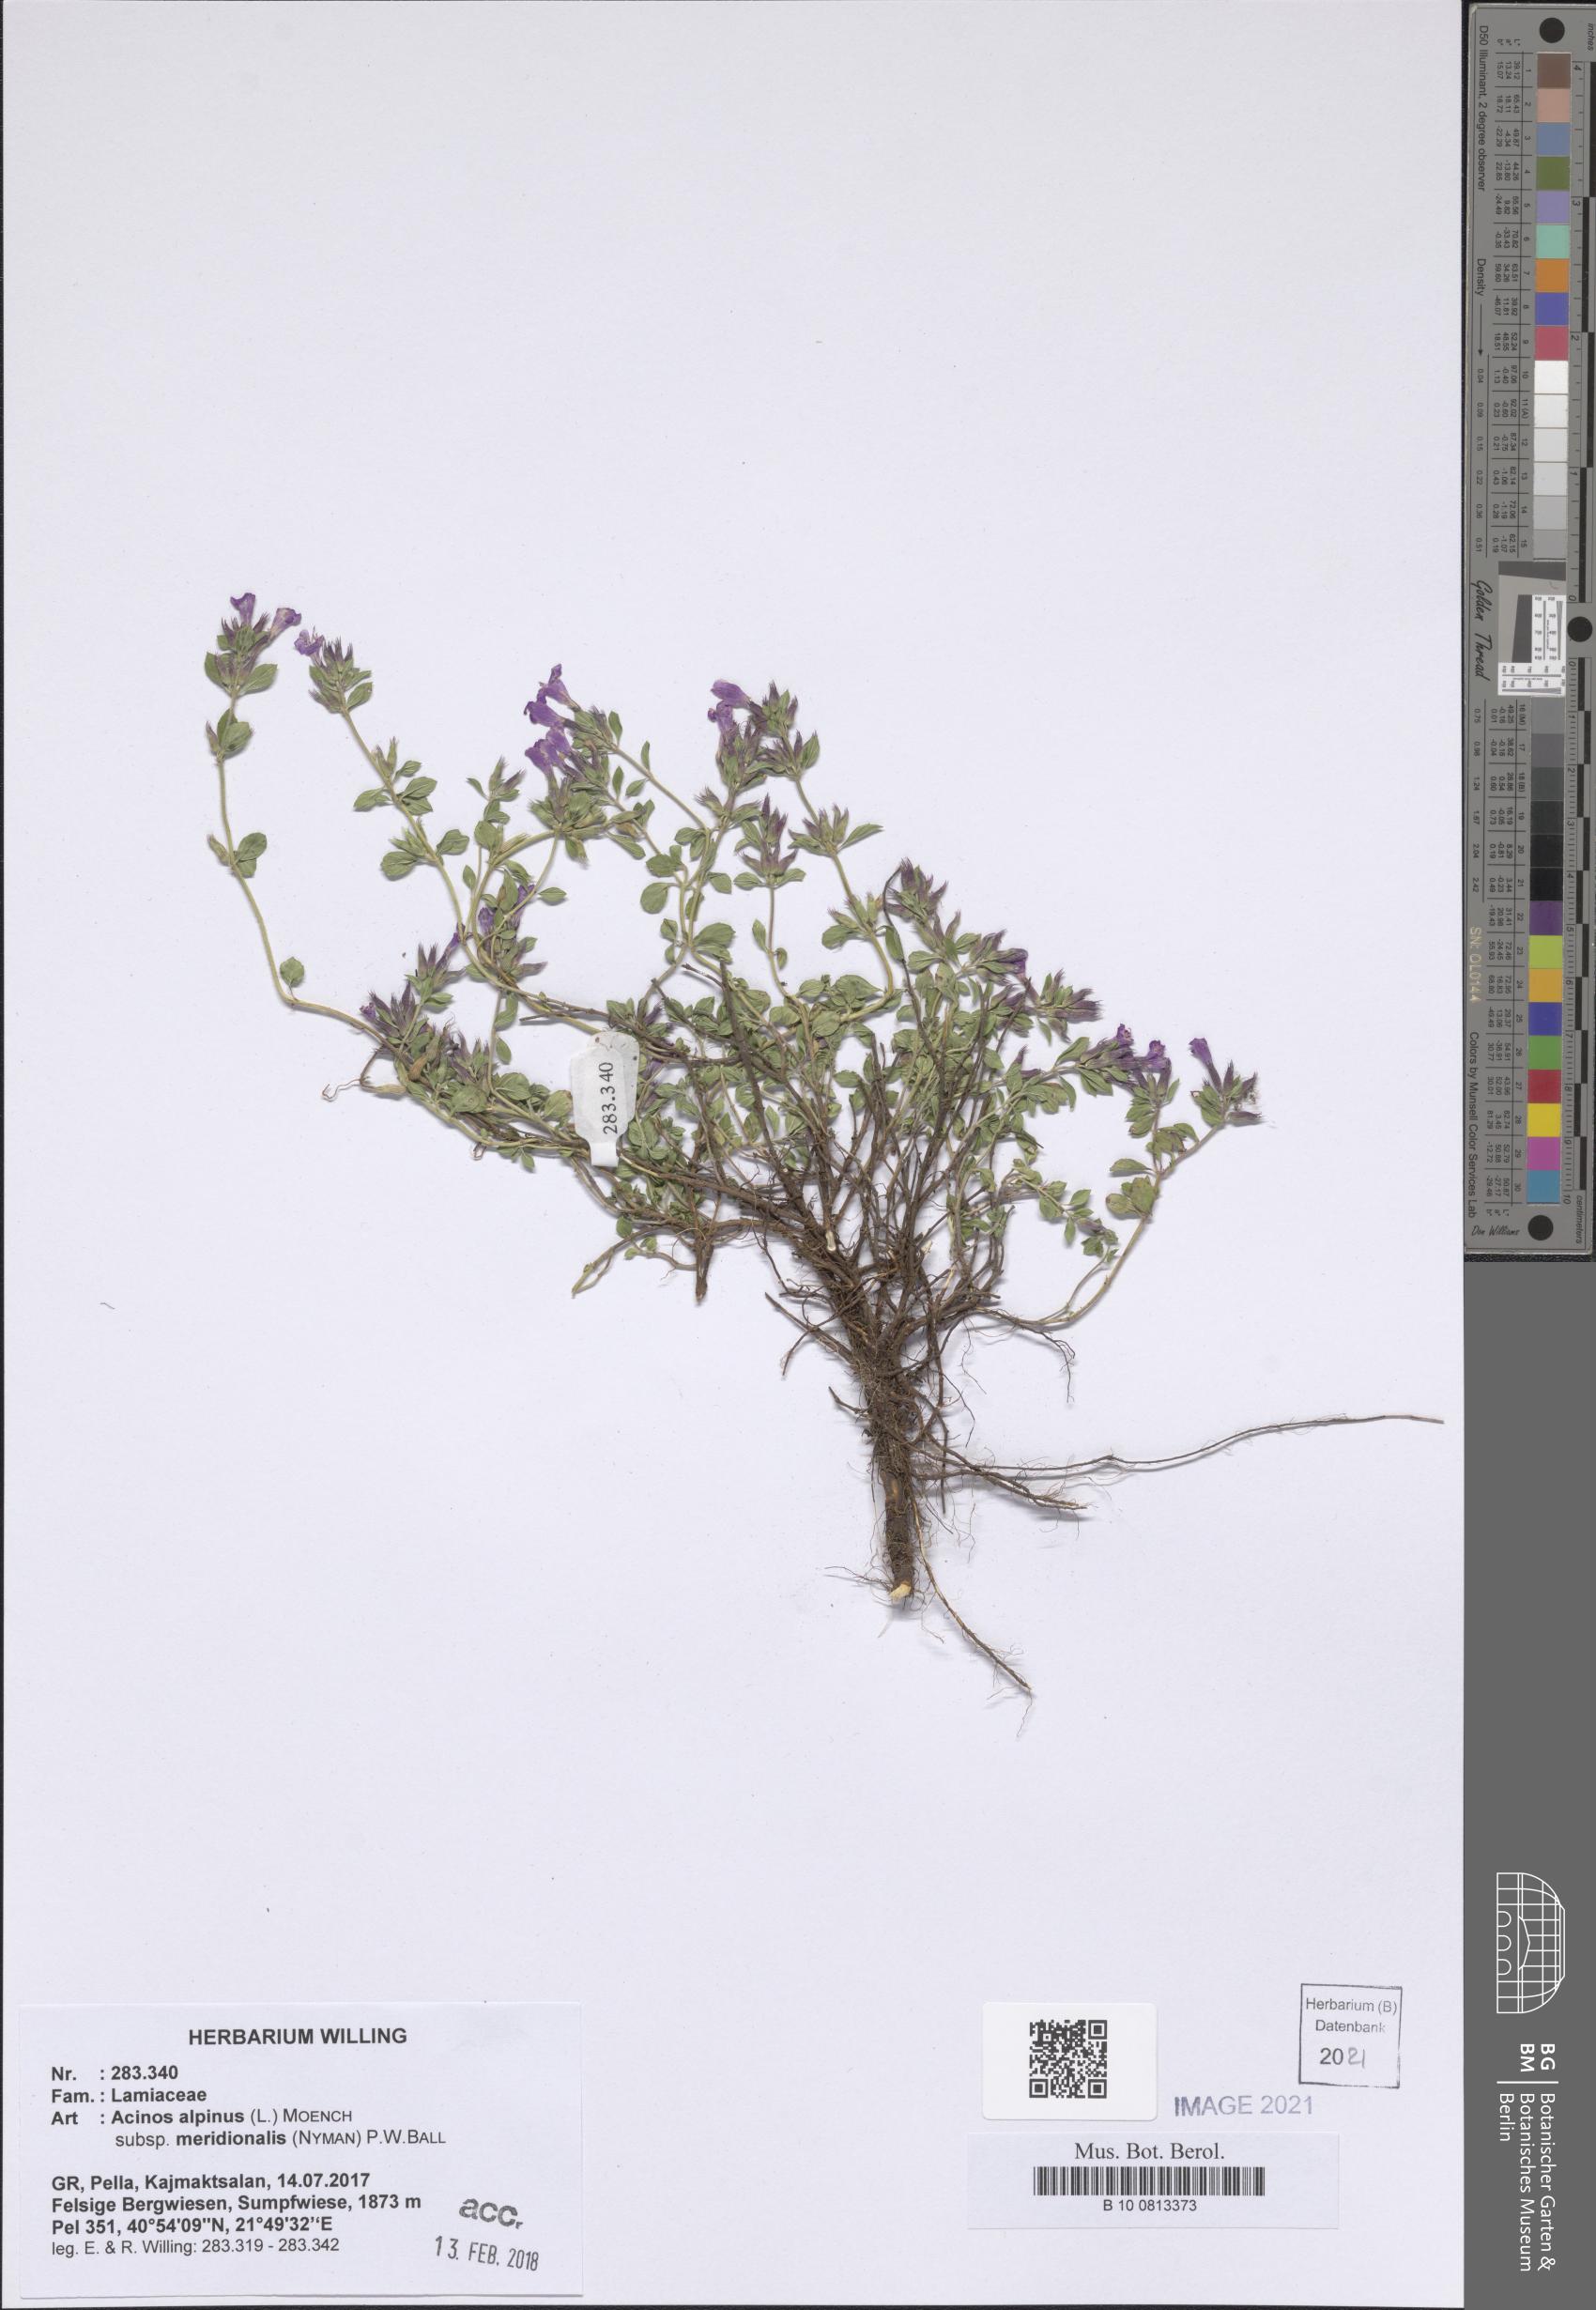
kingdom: Plantae
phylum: Tracheophyta
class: Magnoliopsida
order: Lamiales
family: Lamiaceae
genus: Clinopodium
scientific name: Clinopodium alpinum
